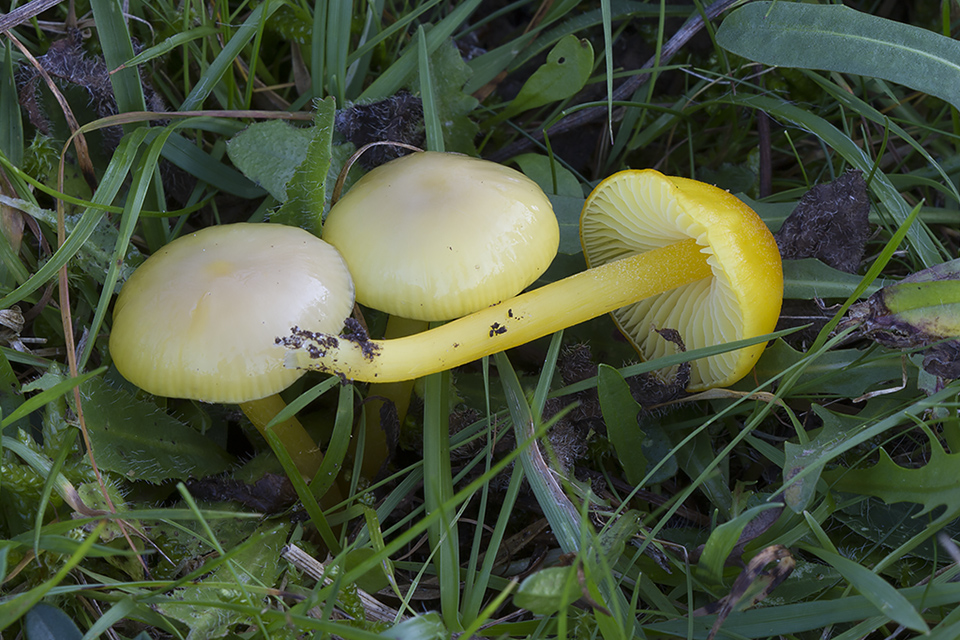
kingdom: Fungi
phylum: Basidiomycota
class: Agaricomycetes
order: Agaricales
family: Hygrophoraceae
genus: Hygrocybe
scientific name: Hygrocybe chlorophana
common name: gul vokshat
